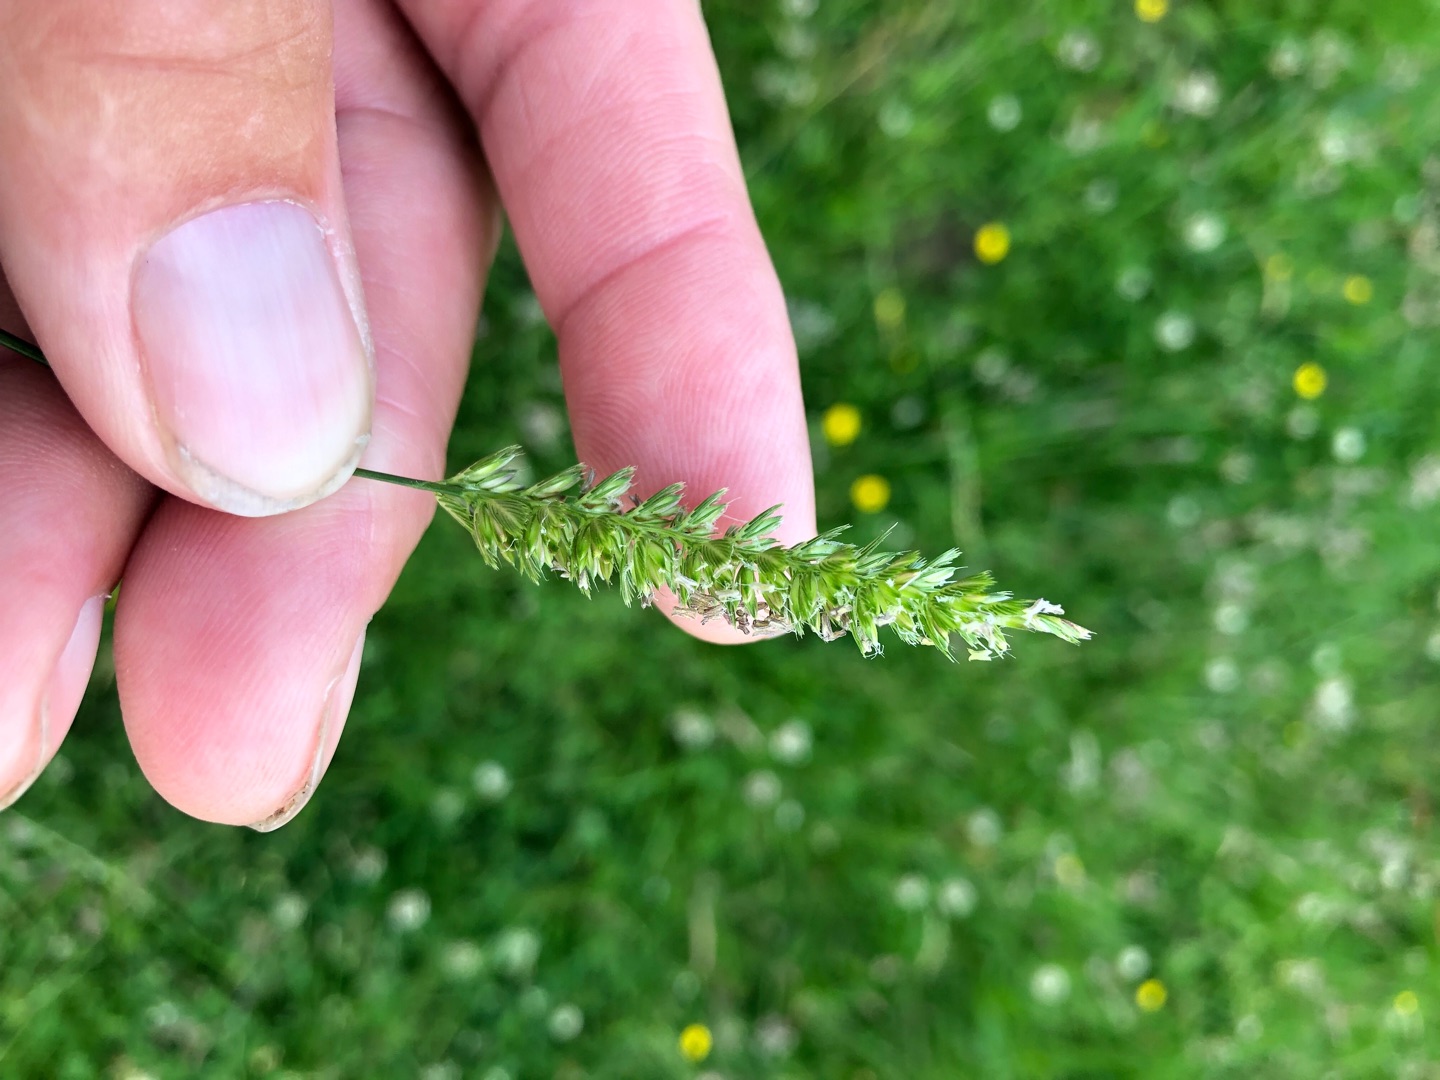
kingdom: Plantae
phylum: Tracheophyta
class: Liliopsida
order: Poales
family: Poaceae
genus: Cynosurus
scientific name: Cynosurus cristatus
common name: Kamgræs
